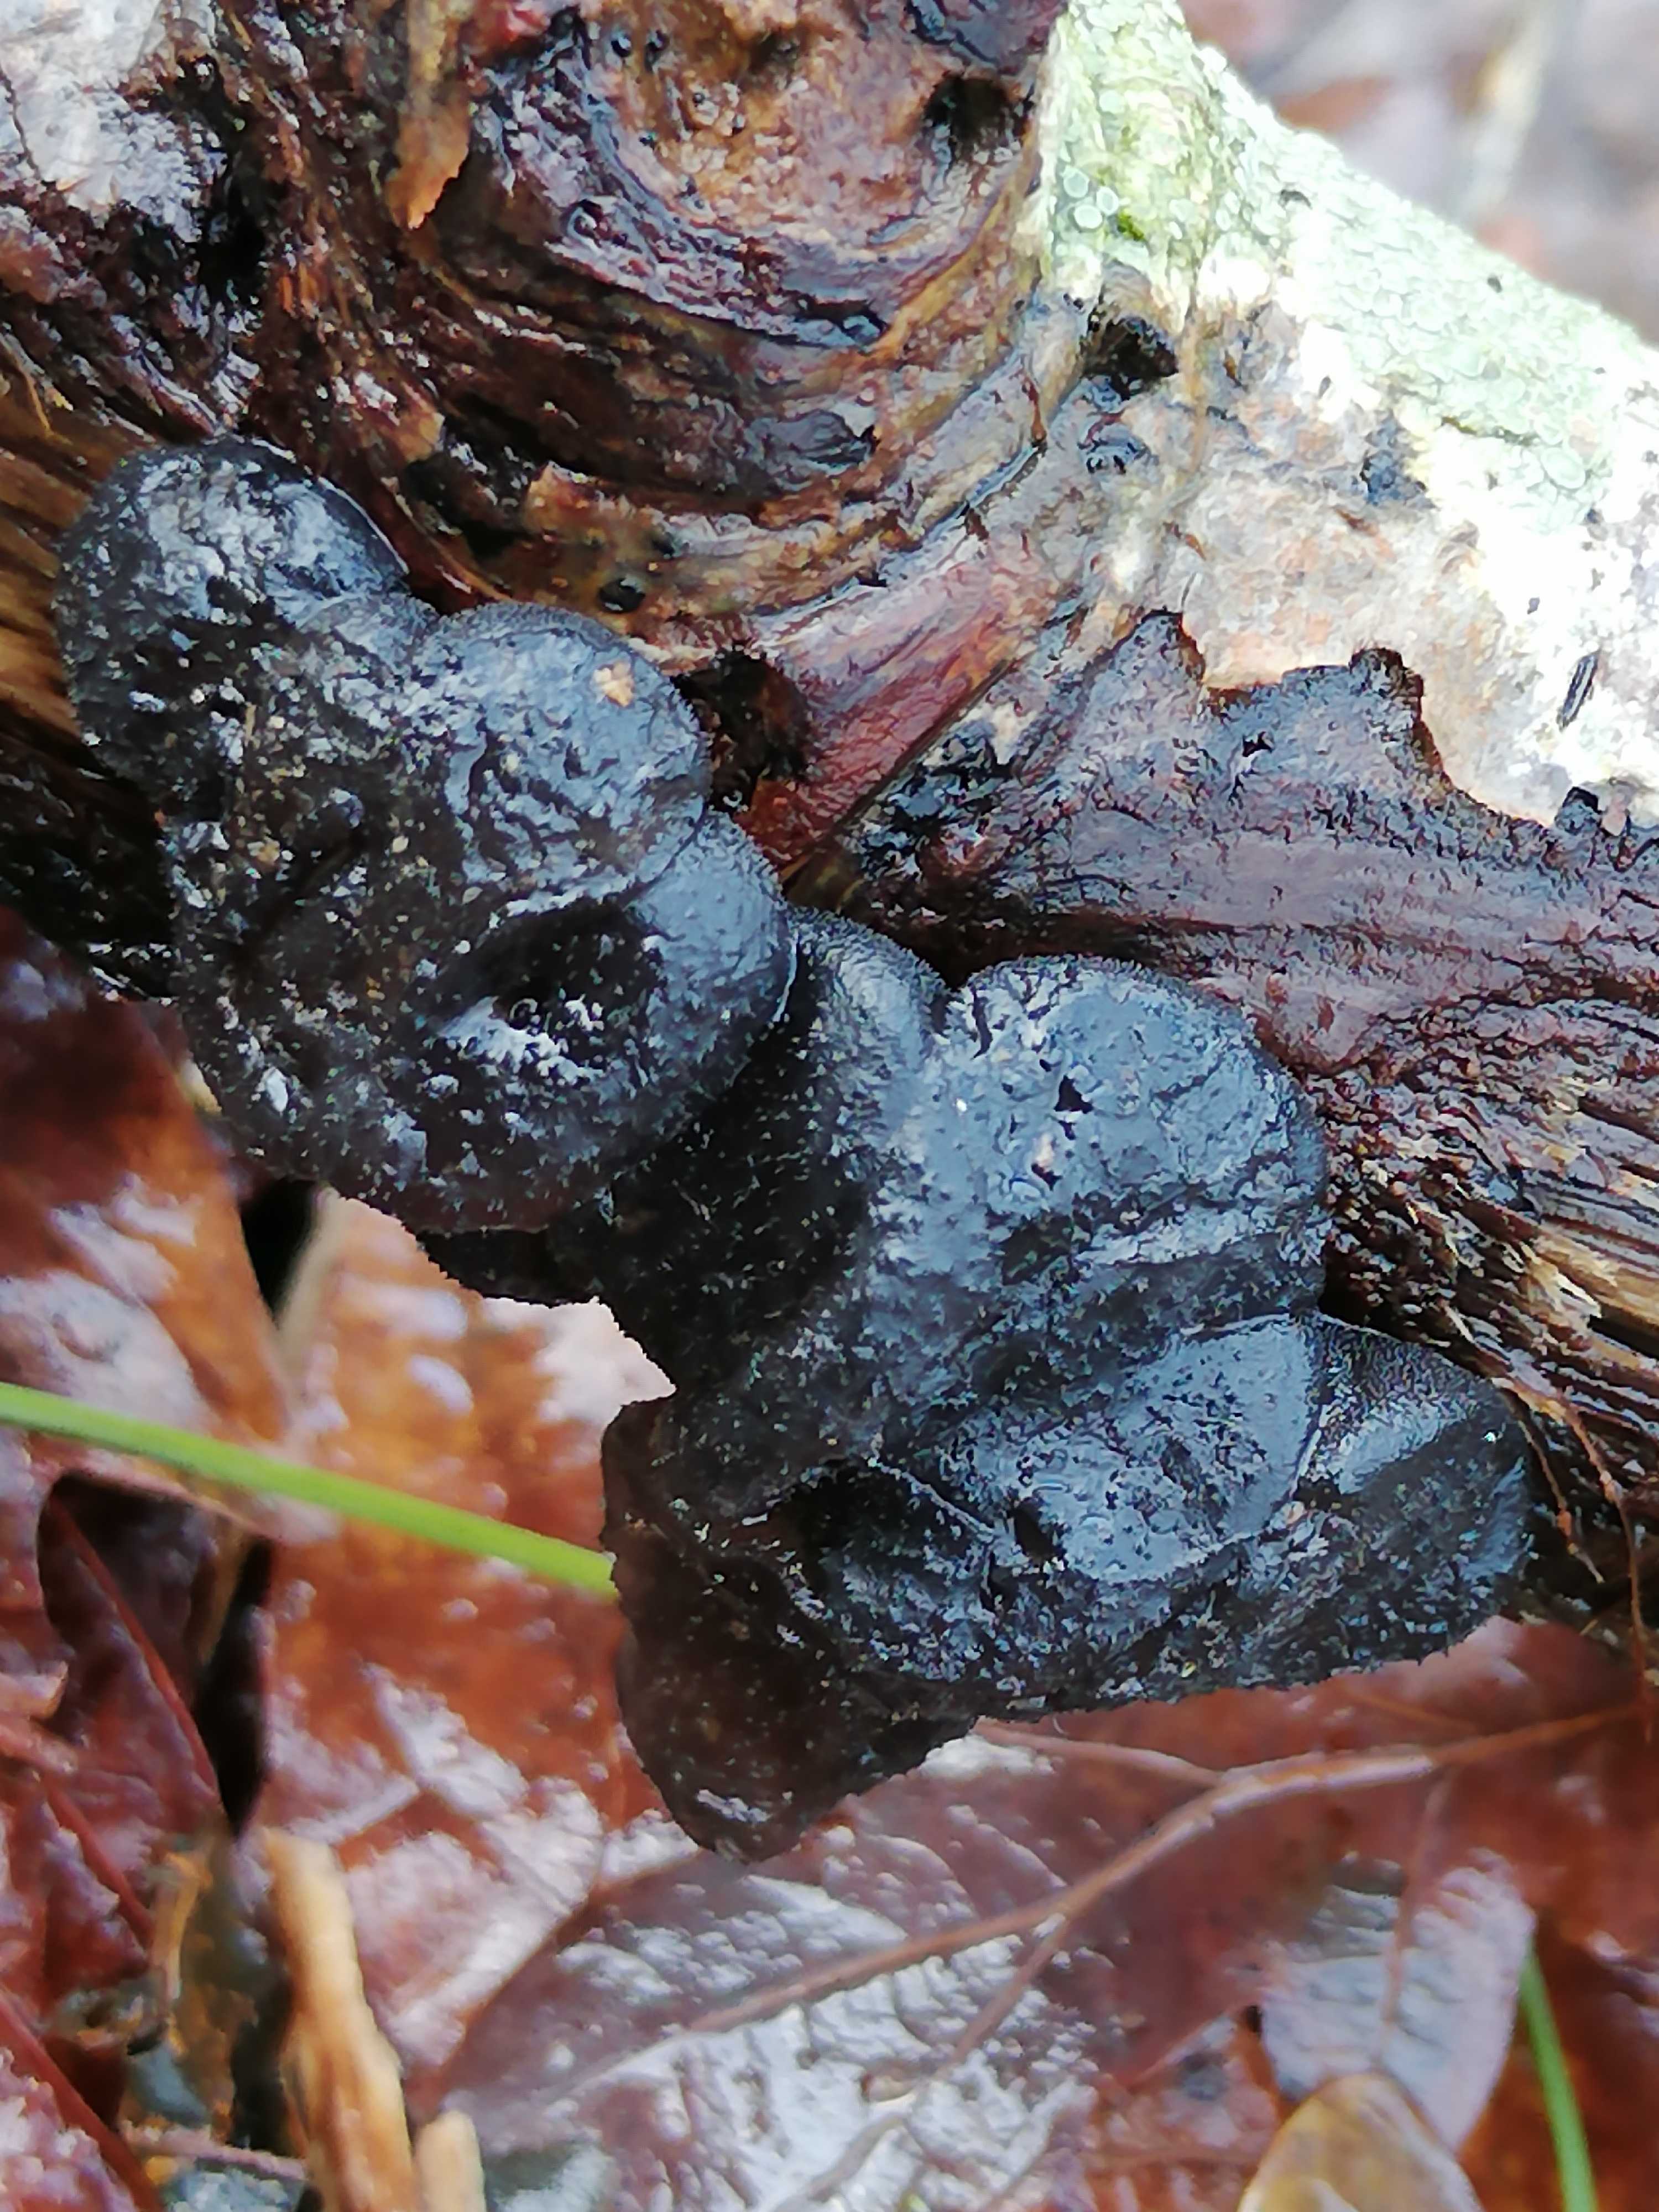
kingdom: Fungi
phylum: Basidiomycota
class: Agaricomycetes
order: Auriculariales
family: Auriculariaceae
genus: Exidia
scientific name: Exidia glandulosa
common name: ege-bævretop
